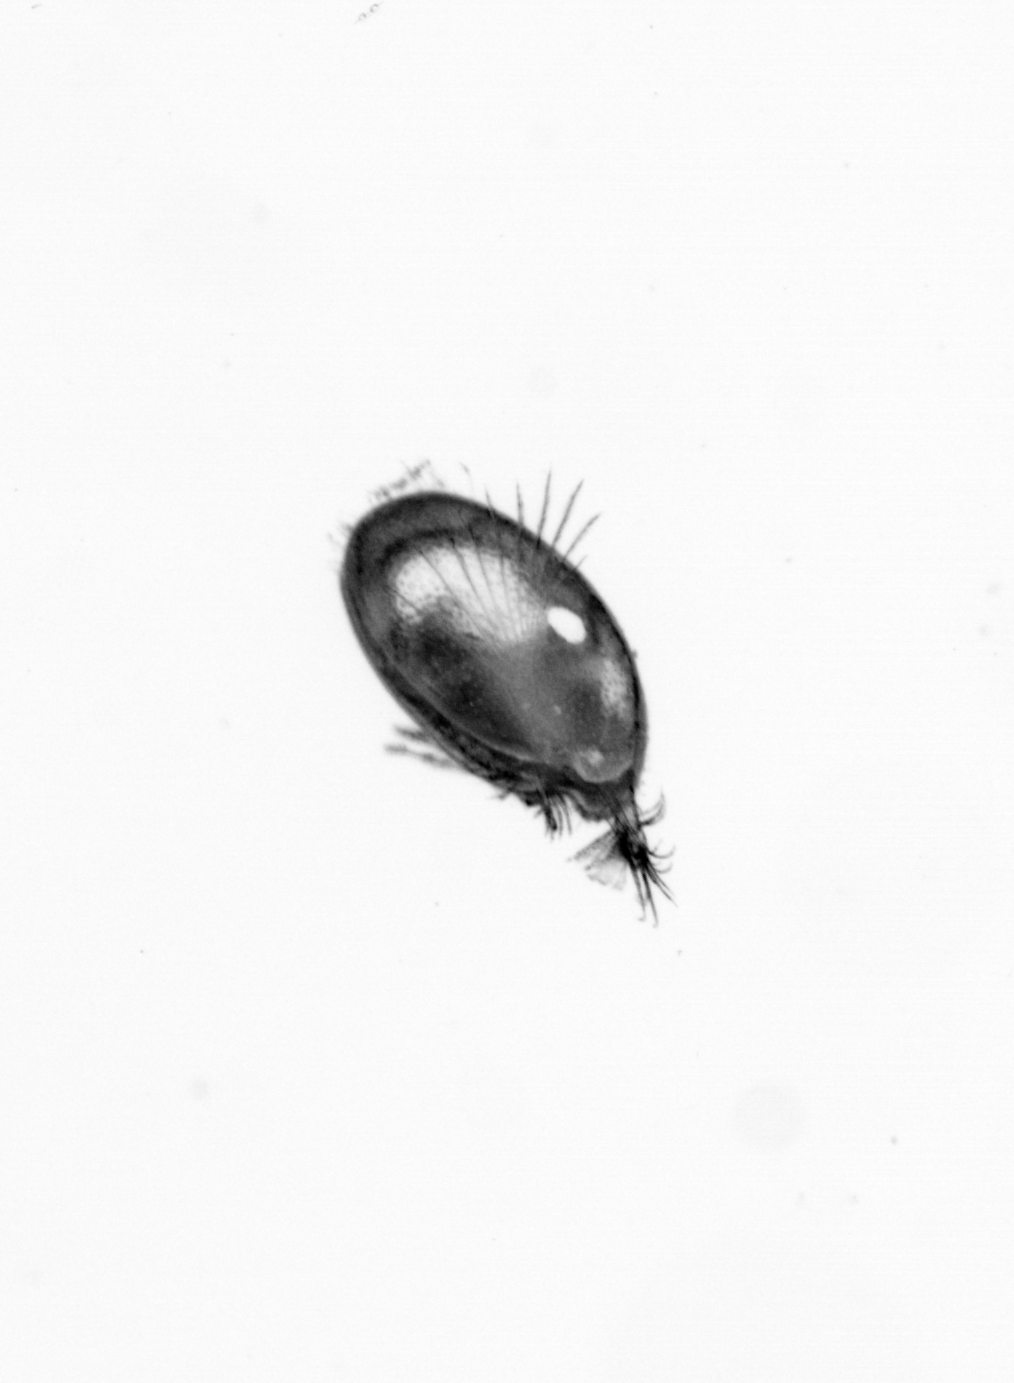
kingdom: Animalia
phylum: Annelida
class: Polychaeta
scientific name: Polychaeta
